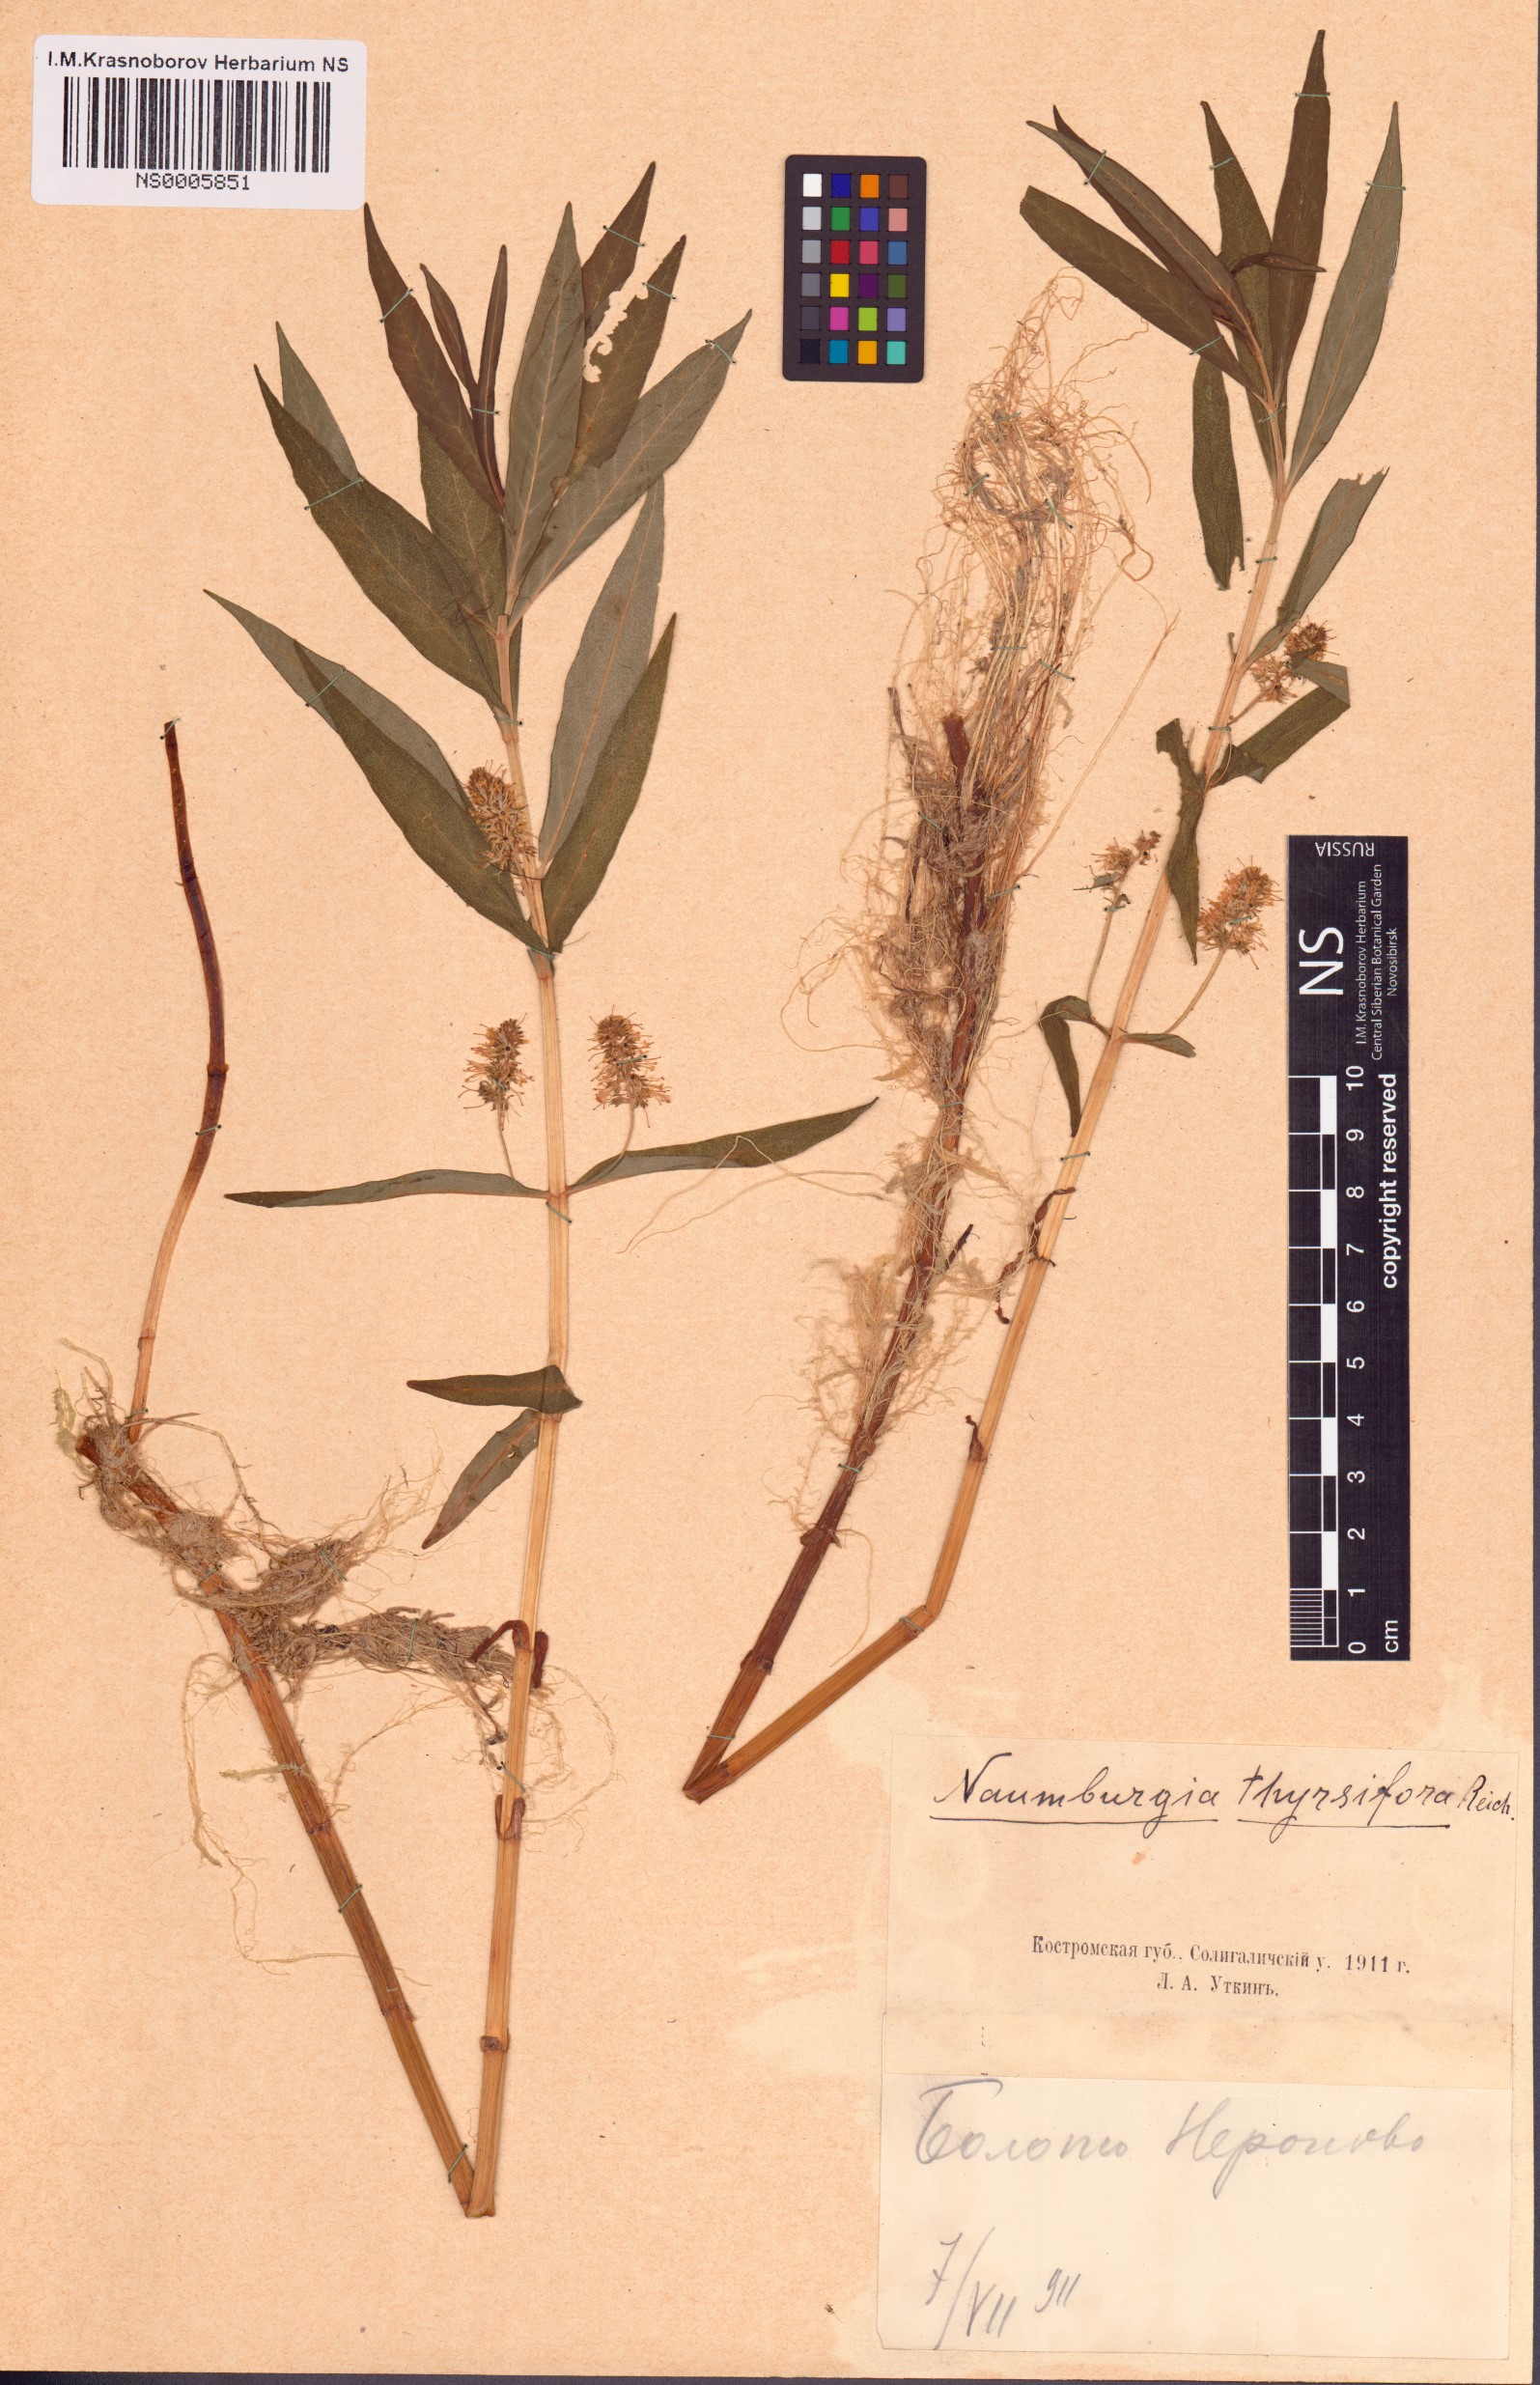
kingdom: Plantae
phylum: Tracheophyta
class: Magnoliopsida
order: Ericales
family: Primulaceae
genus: Lysimachia
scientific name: Lysimachia thyrsiflora
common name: Tufted loosestrife
